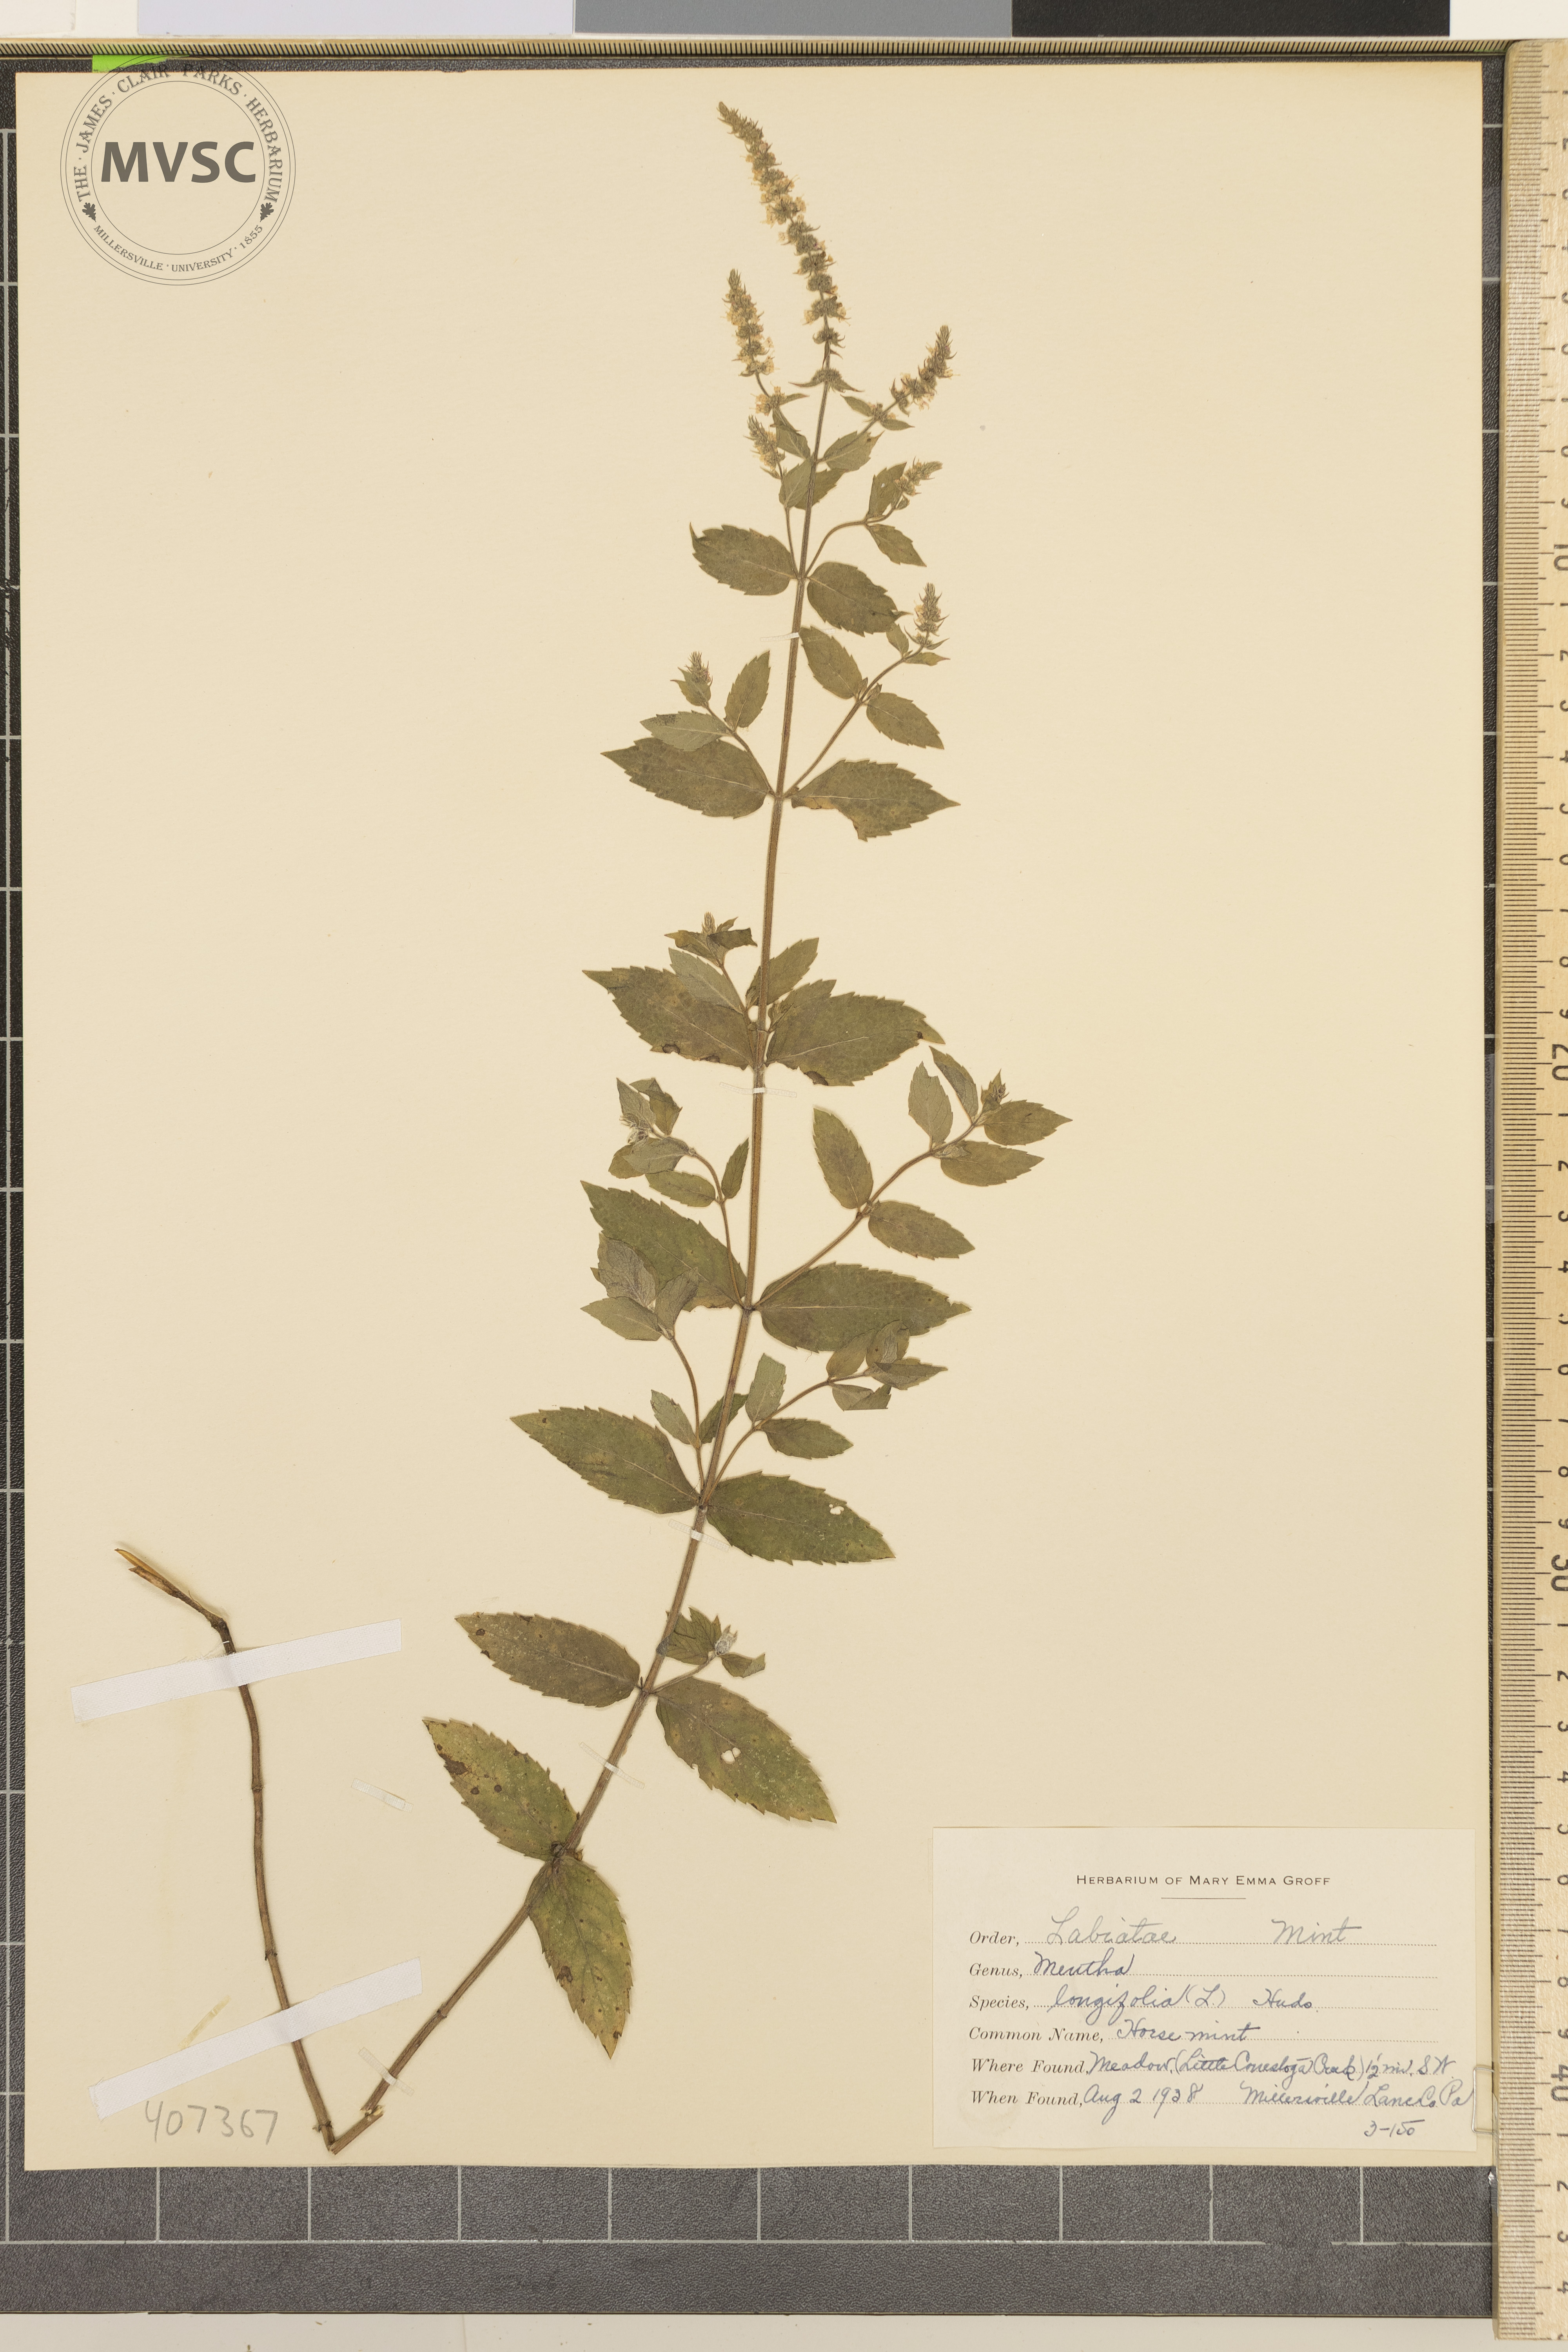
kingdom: Plantae
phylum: Tracheophyta
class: Magnoliopsida
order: Lamiales
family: Lamiaceae
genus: Mentha
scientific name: Mentha longifolia
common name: horse mint
